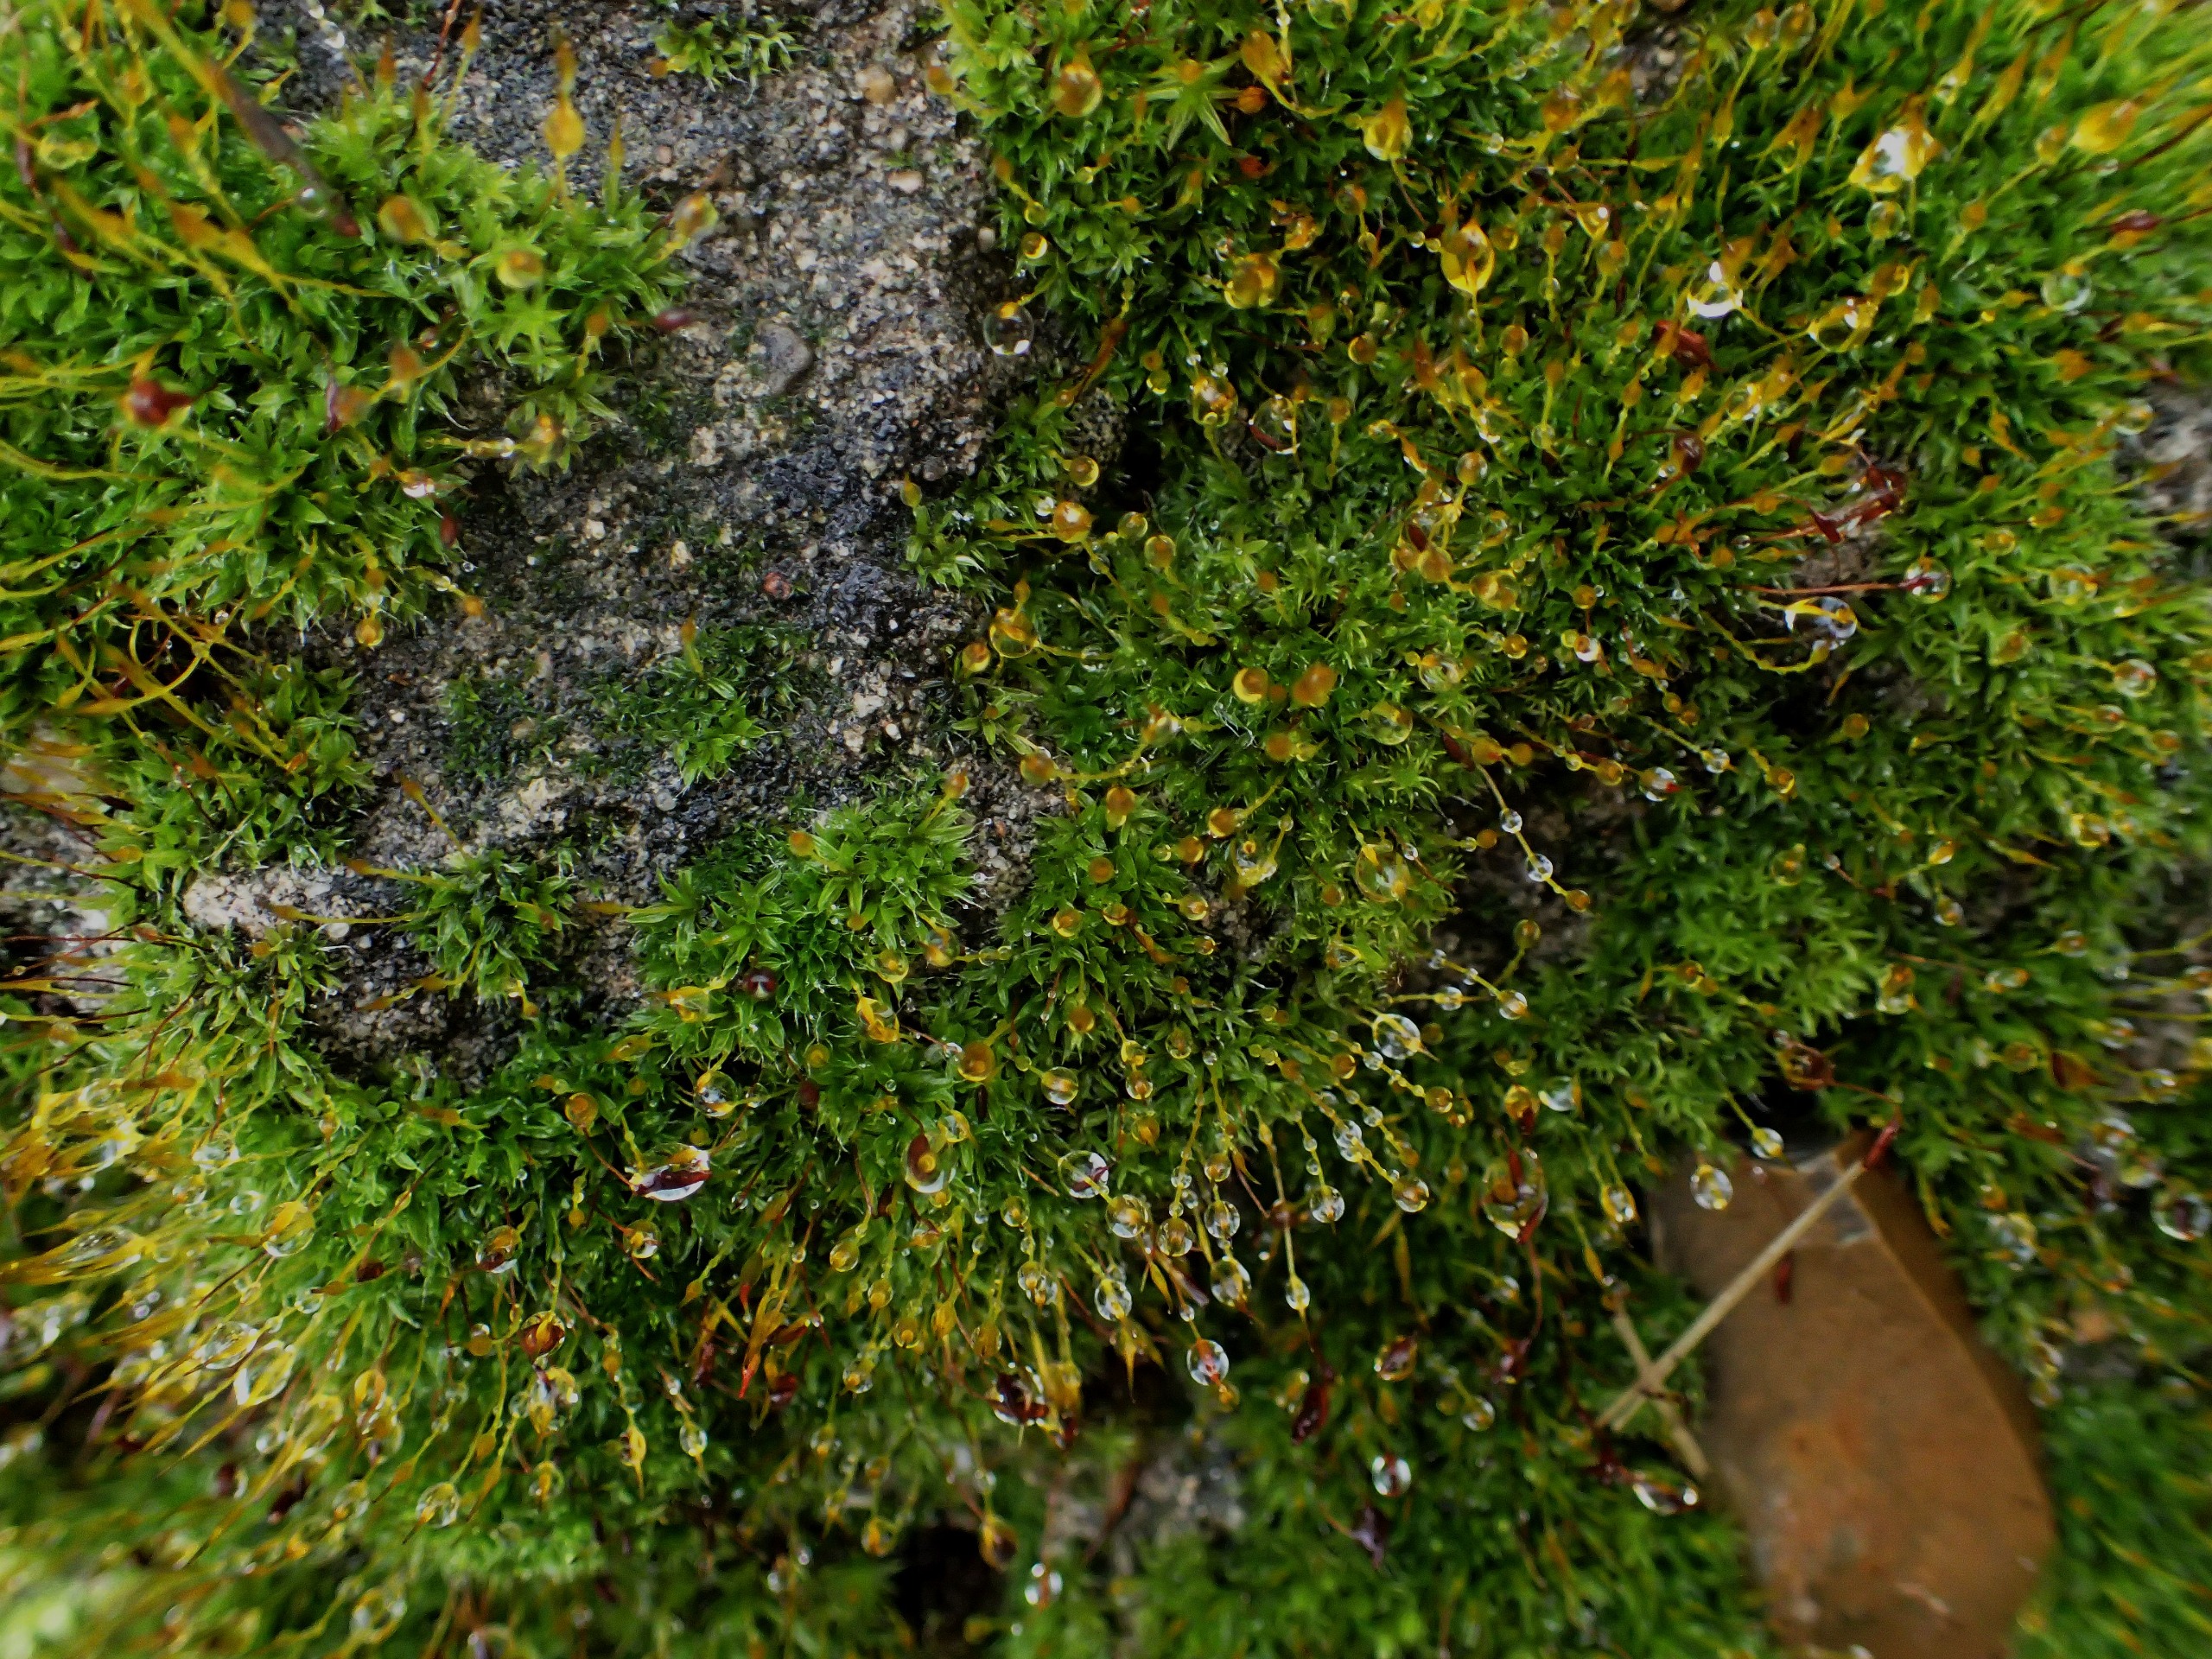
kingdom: Plantae
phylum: Bryophyta
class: Bryopsida
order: Pottiales
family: Pottiaceae
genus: Tortula
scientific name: Tortula muralis
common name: Mur-snotand
